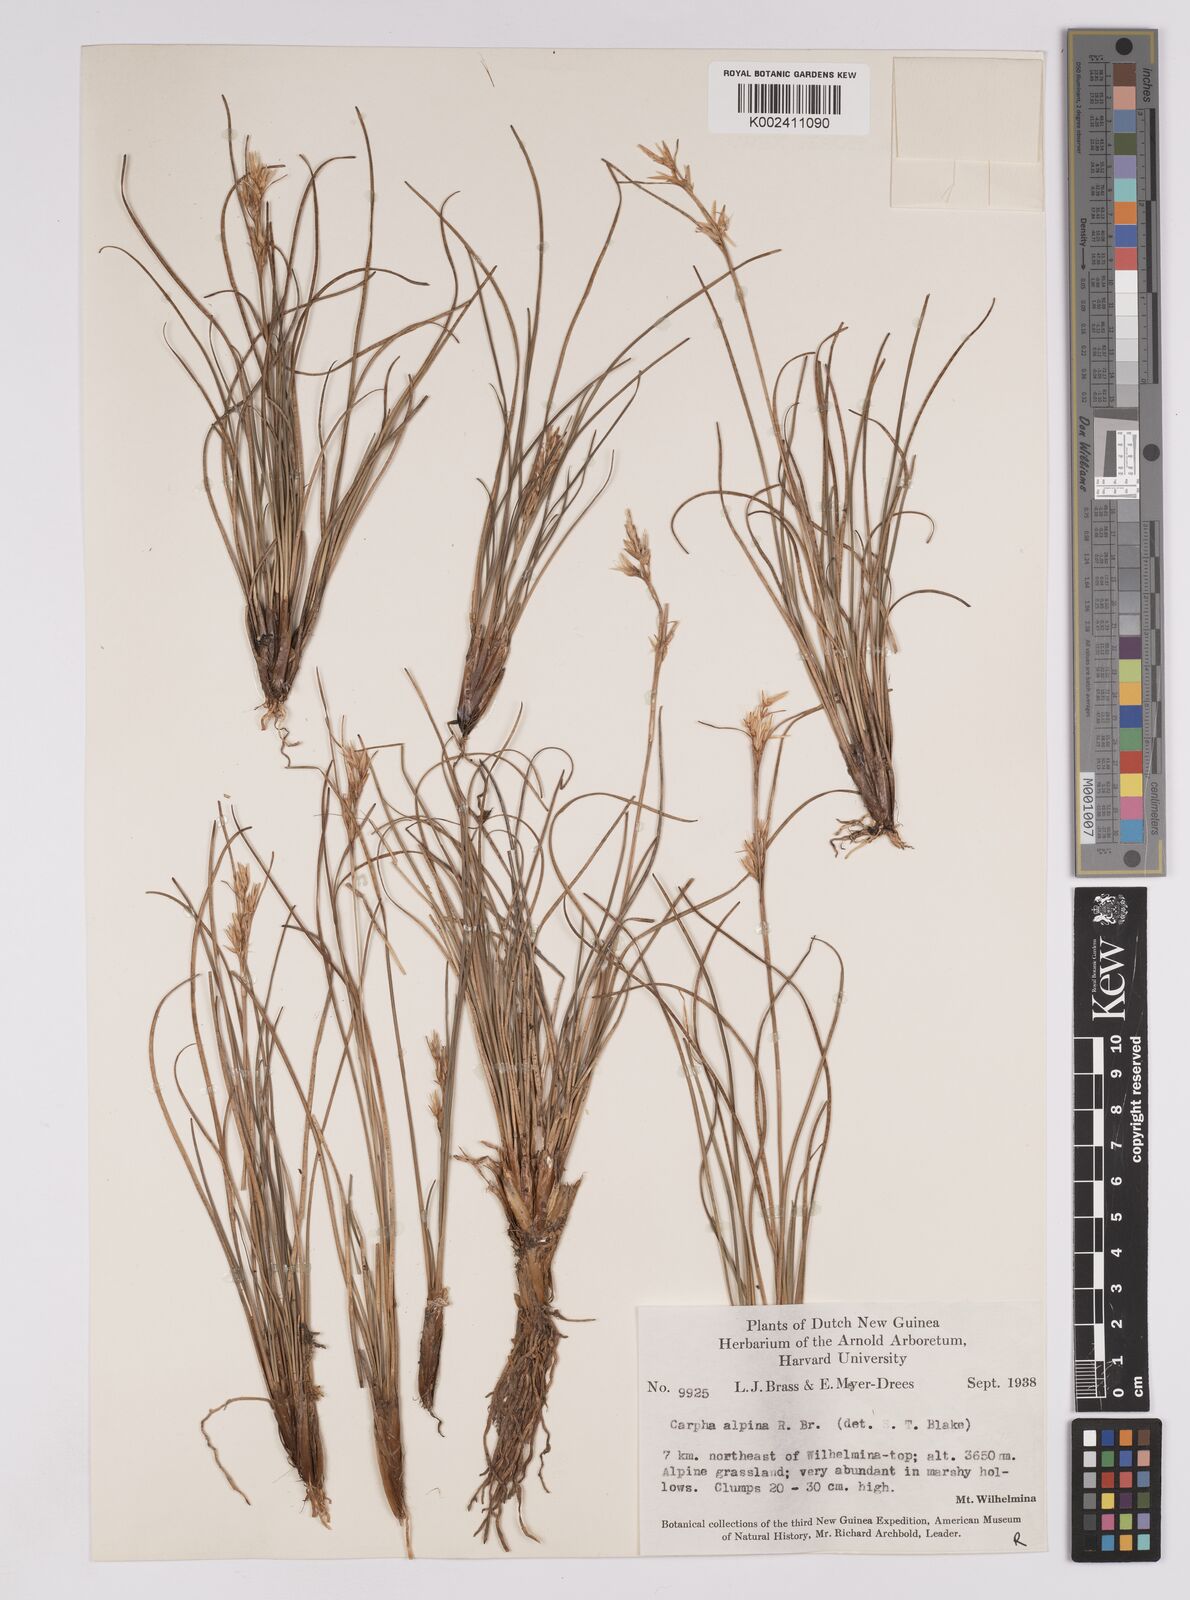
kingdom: Plantae
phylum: Tracheophyta
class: Liliopsida
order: Poales
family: Cyperaceae
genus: Carpha
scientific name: Carpha alpina
